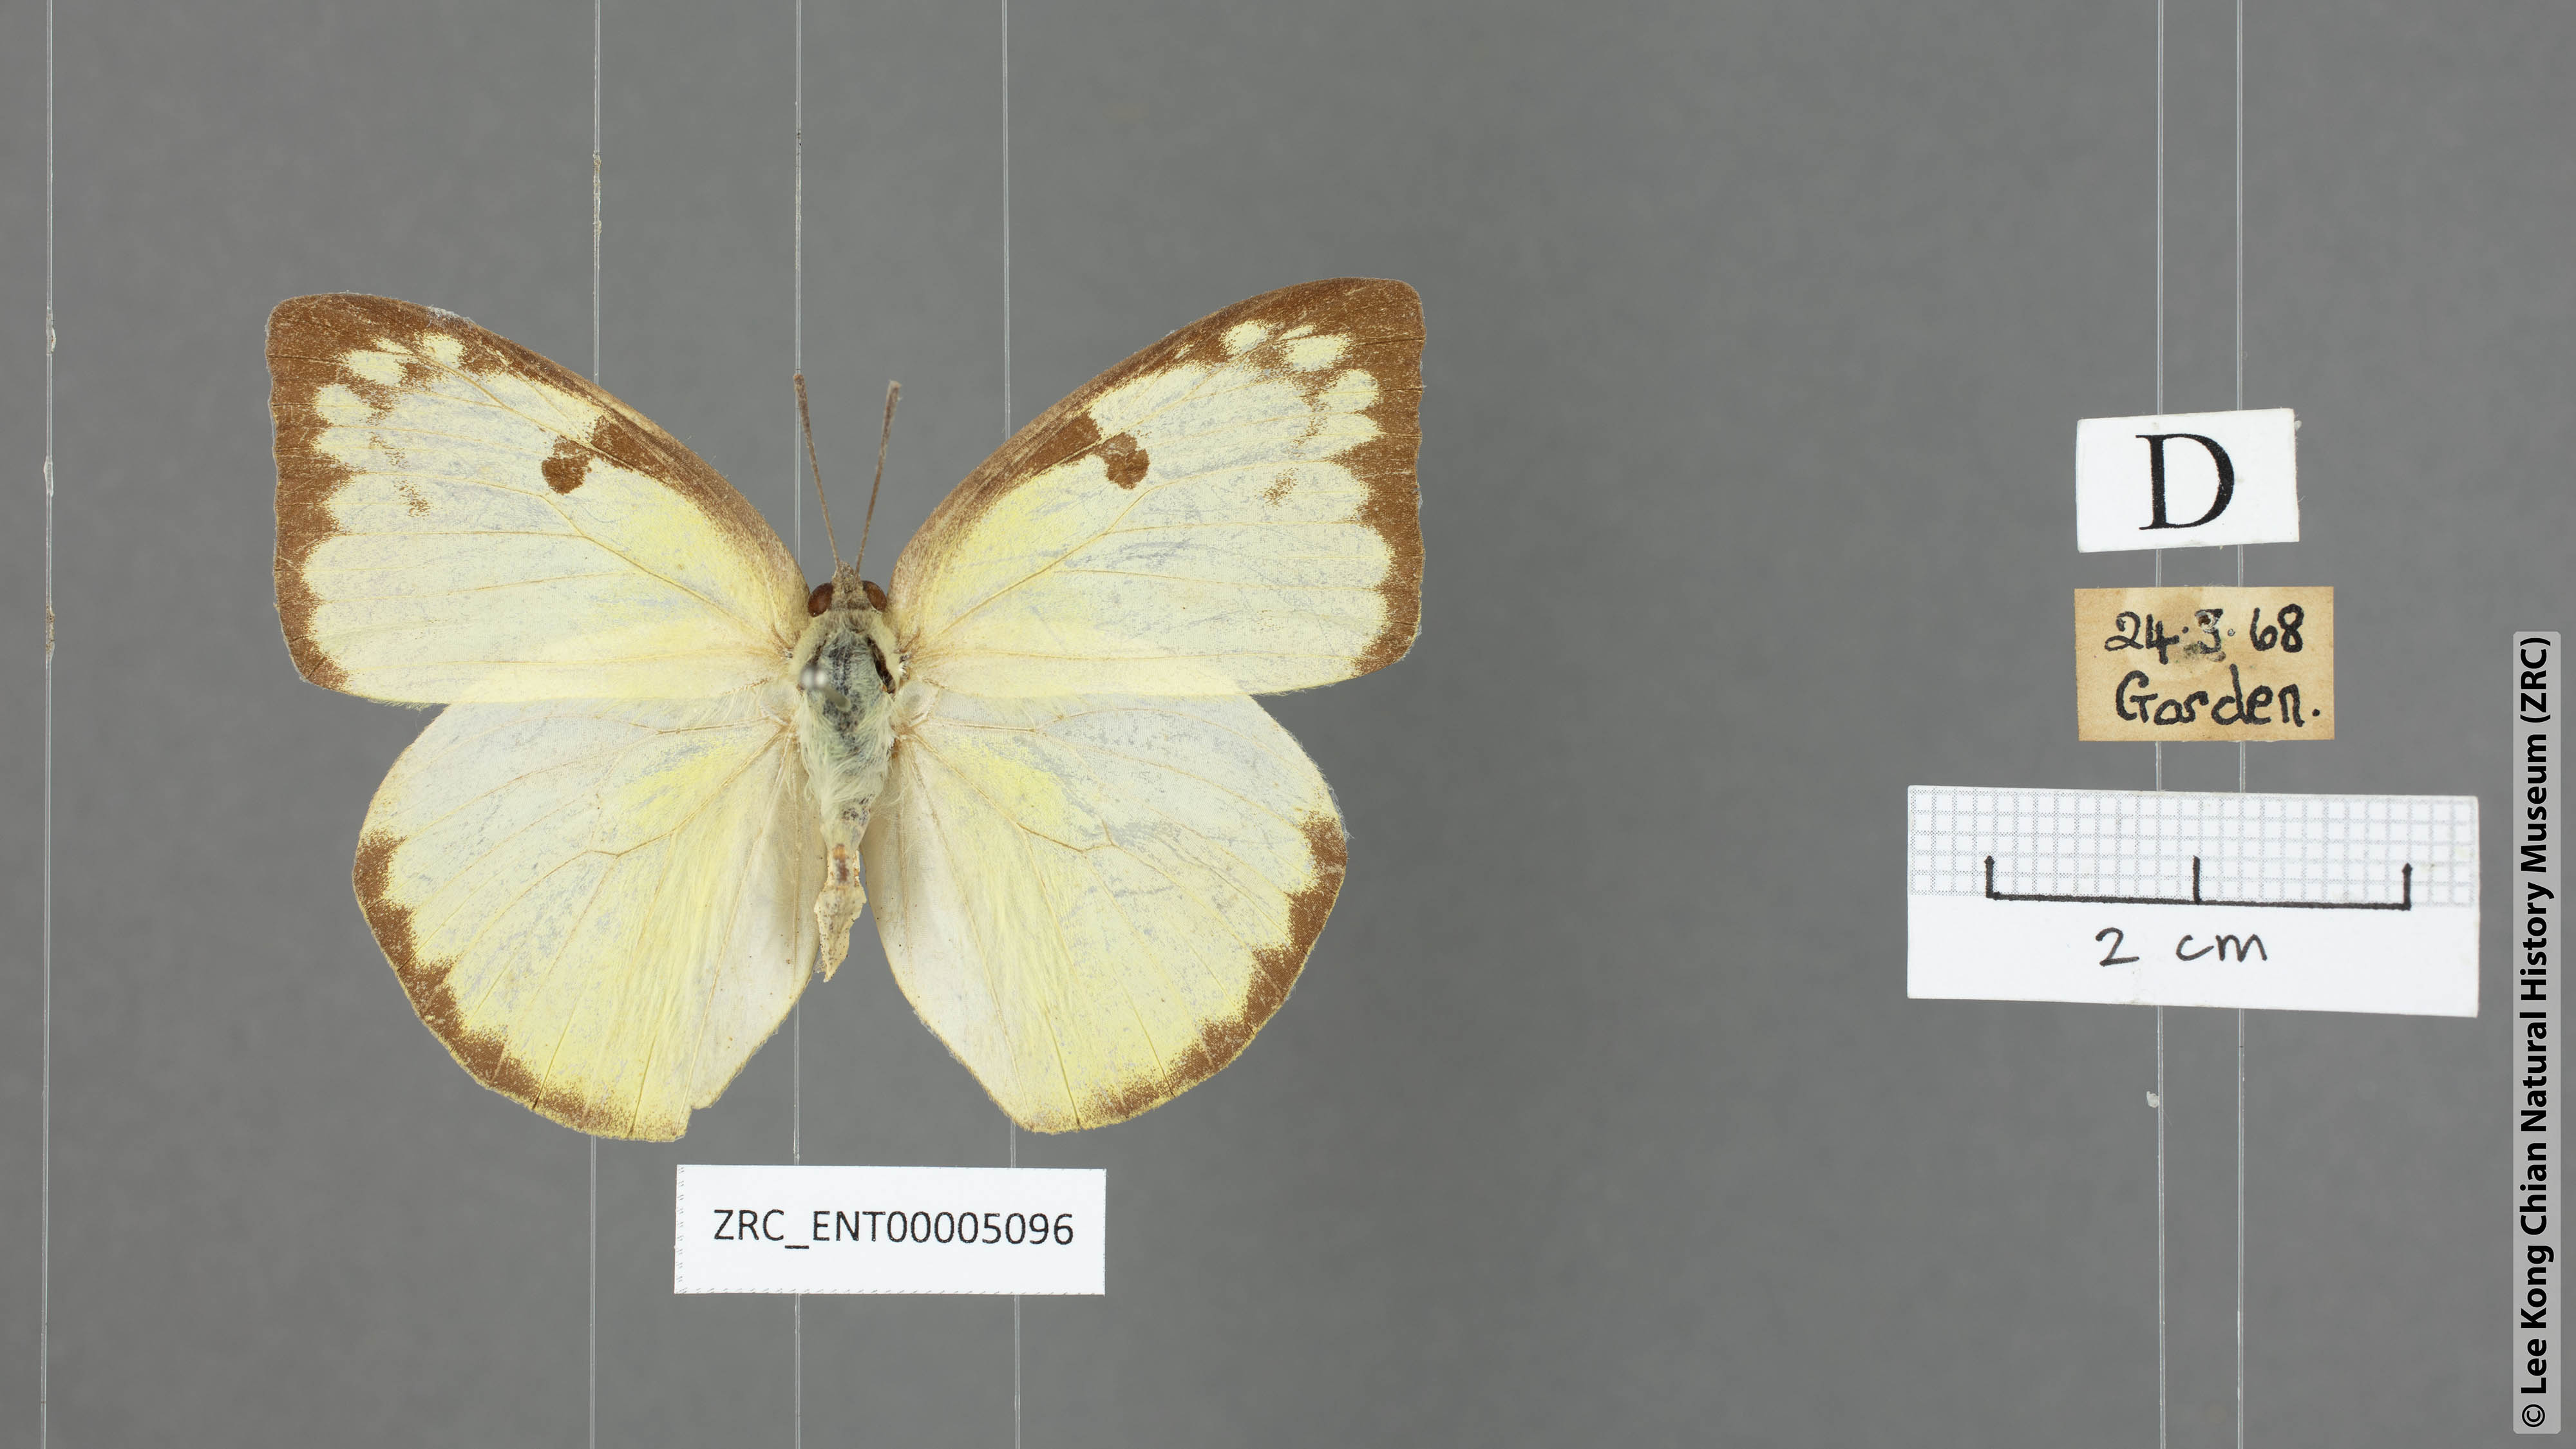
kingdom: Animalia
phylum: Arthropoda
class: Insecta
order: Lepidoptera
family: Pieridae
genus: Catopsilia
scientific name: Catopsilia pomona
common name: Common emigrant
